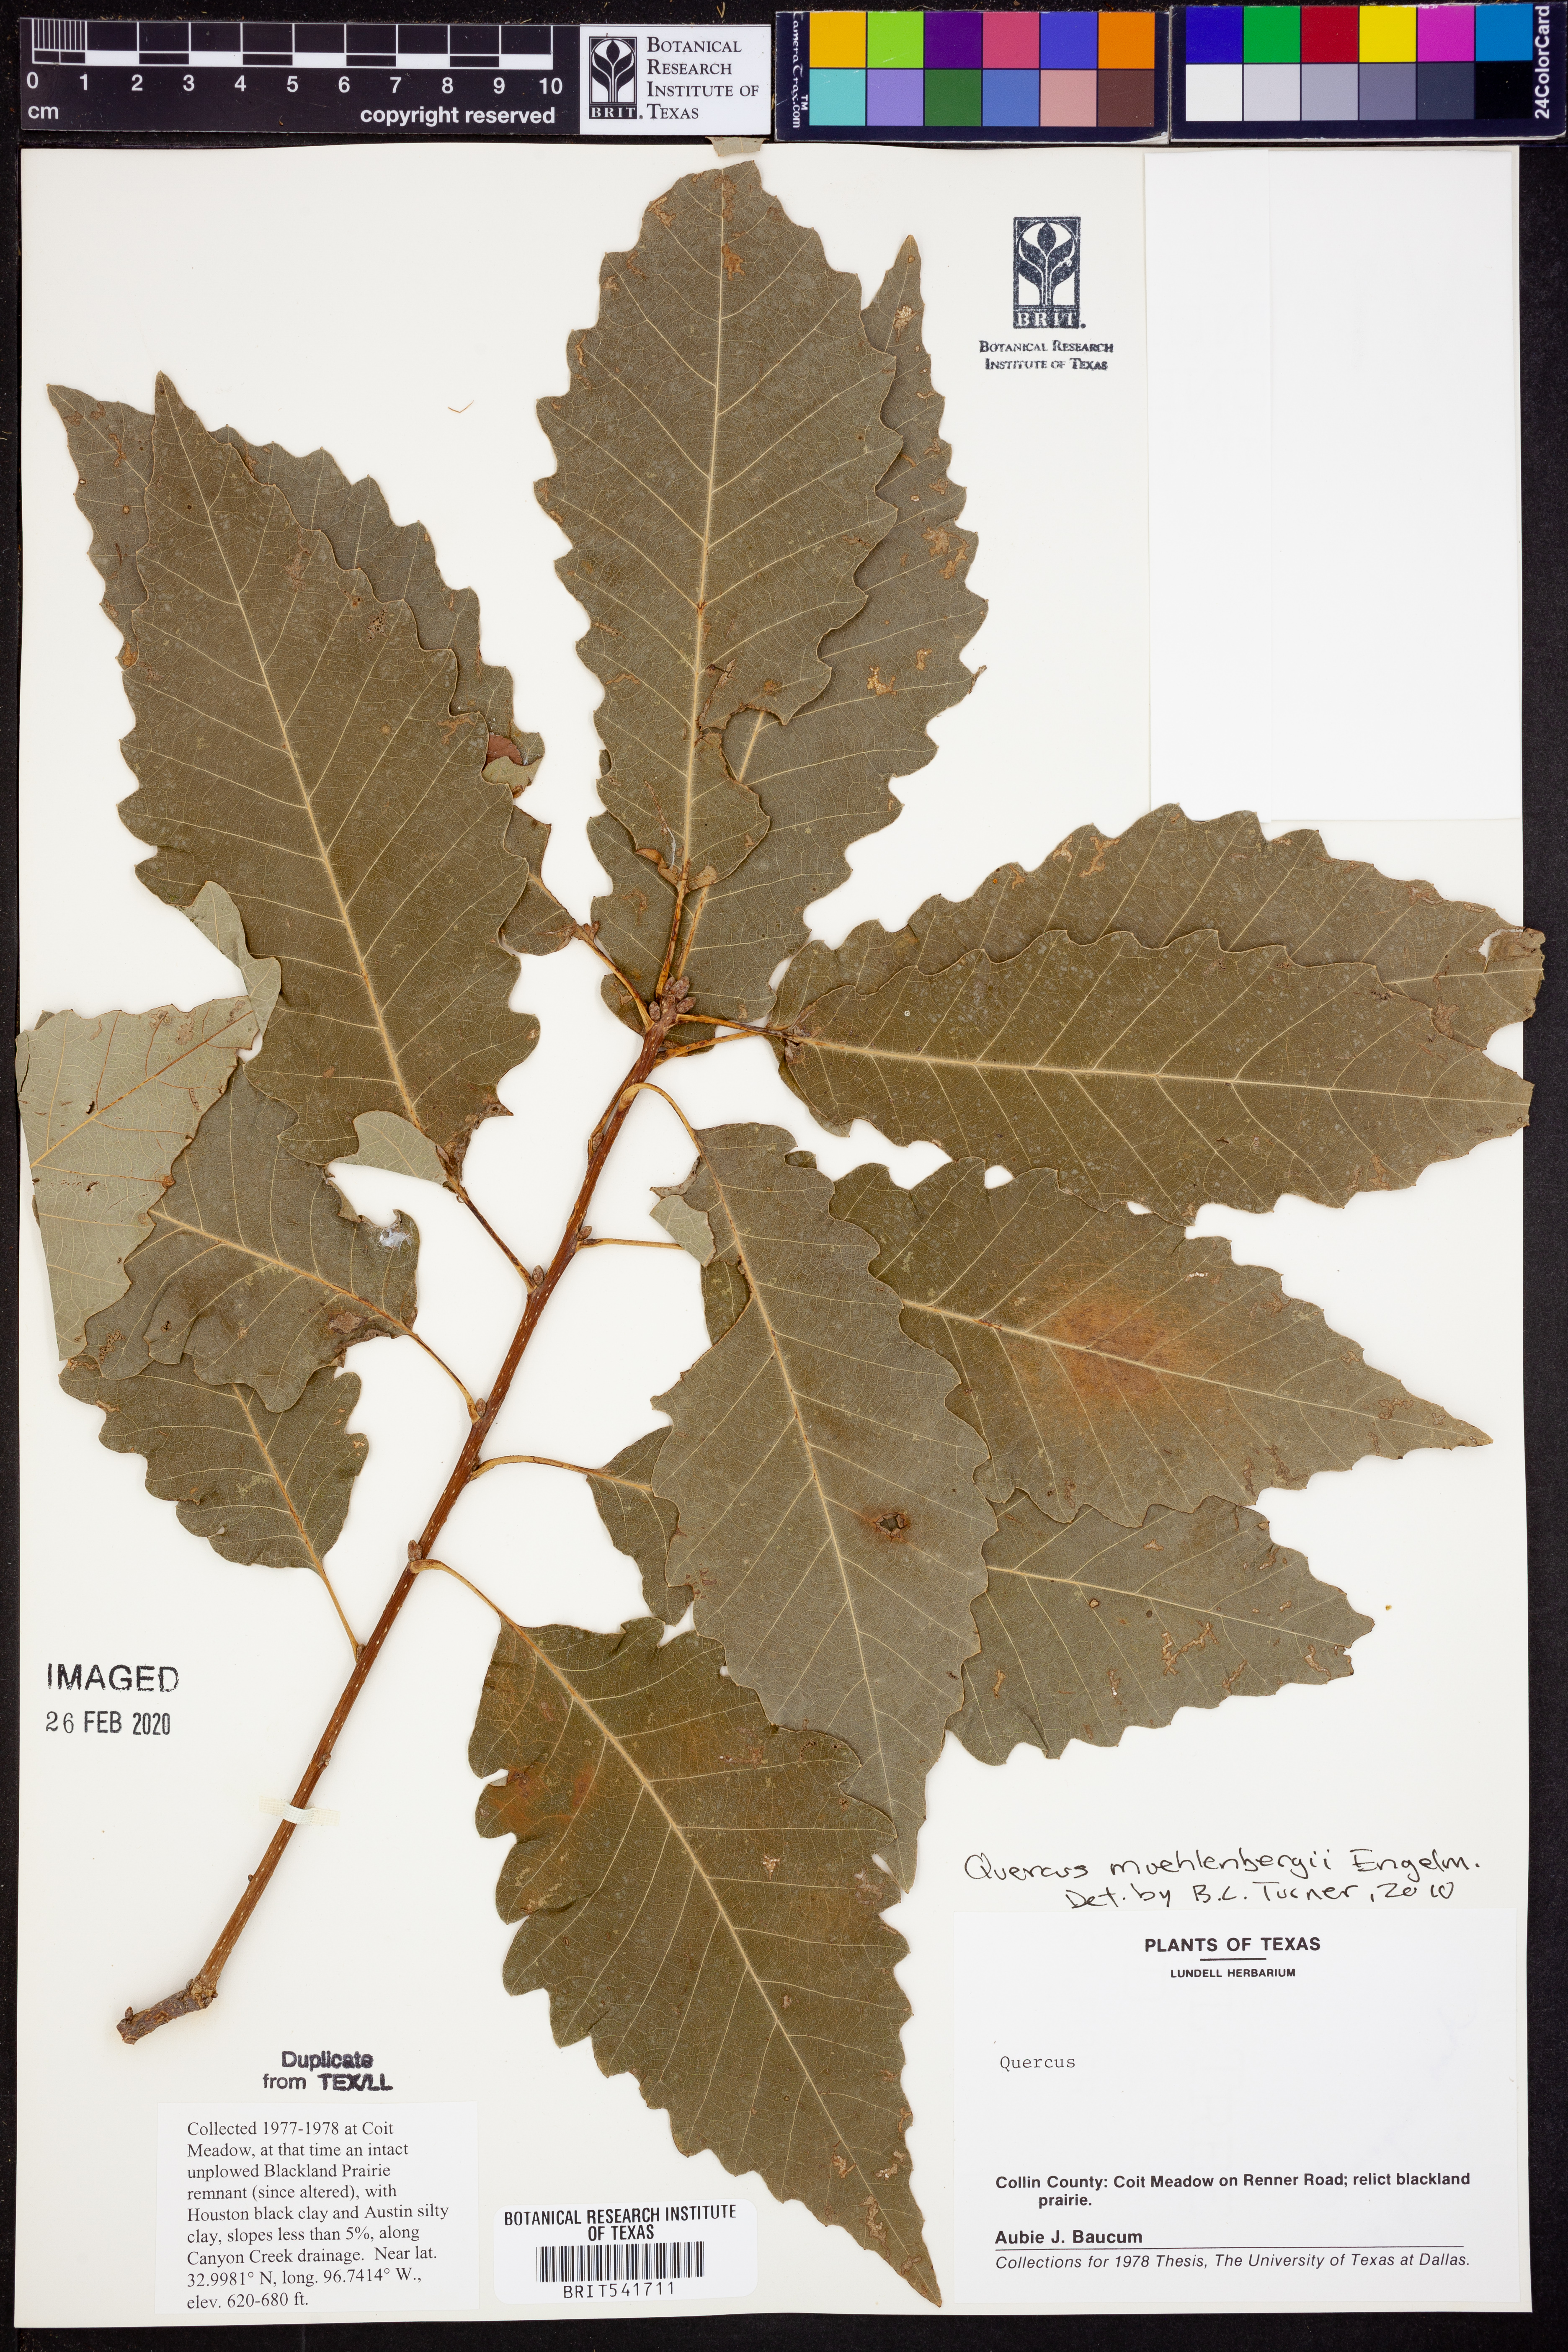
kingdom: Plantae
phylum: Tracheophyta
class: Magnoliopsida
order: Fagales
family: Fagaceae
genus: Quercus
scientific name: Quercus muehlenbergii
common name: Chinkapin oak
